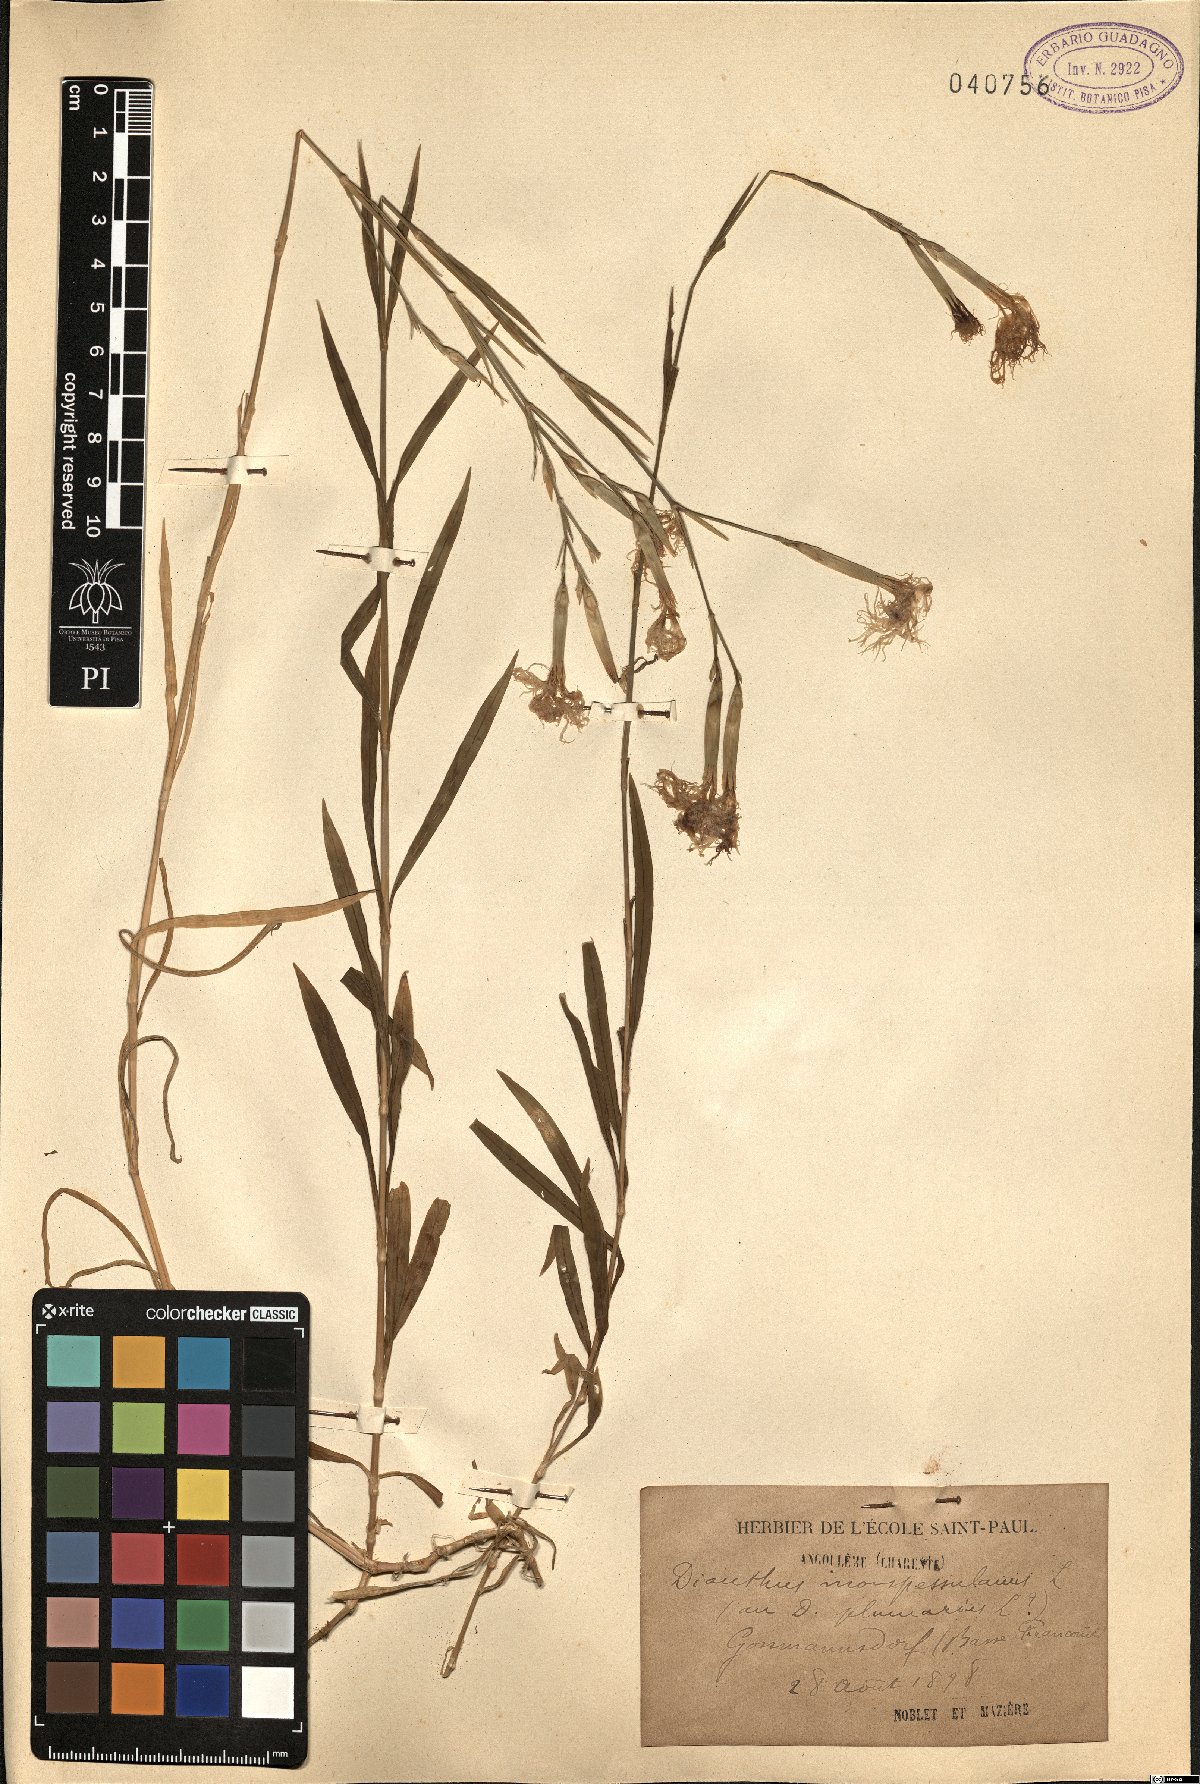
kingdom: Plantae
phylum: Tracheophyta
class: Magnoliopsida
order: Caryophyllales
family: Caryophyllaceae
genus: Dianthus
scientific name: Dianthus hyssopifolius
